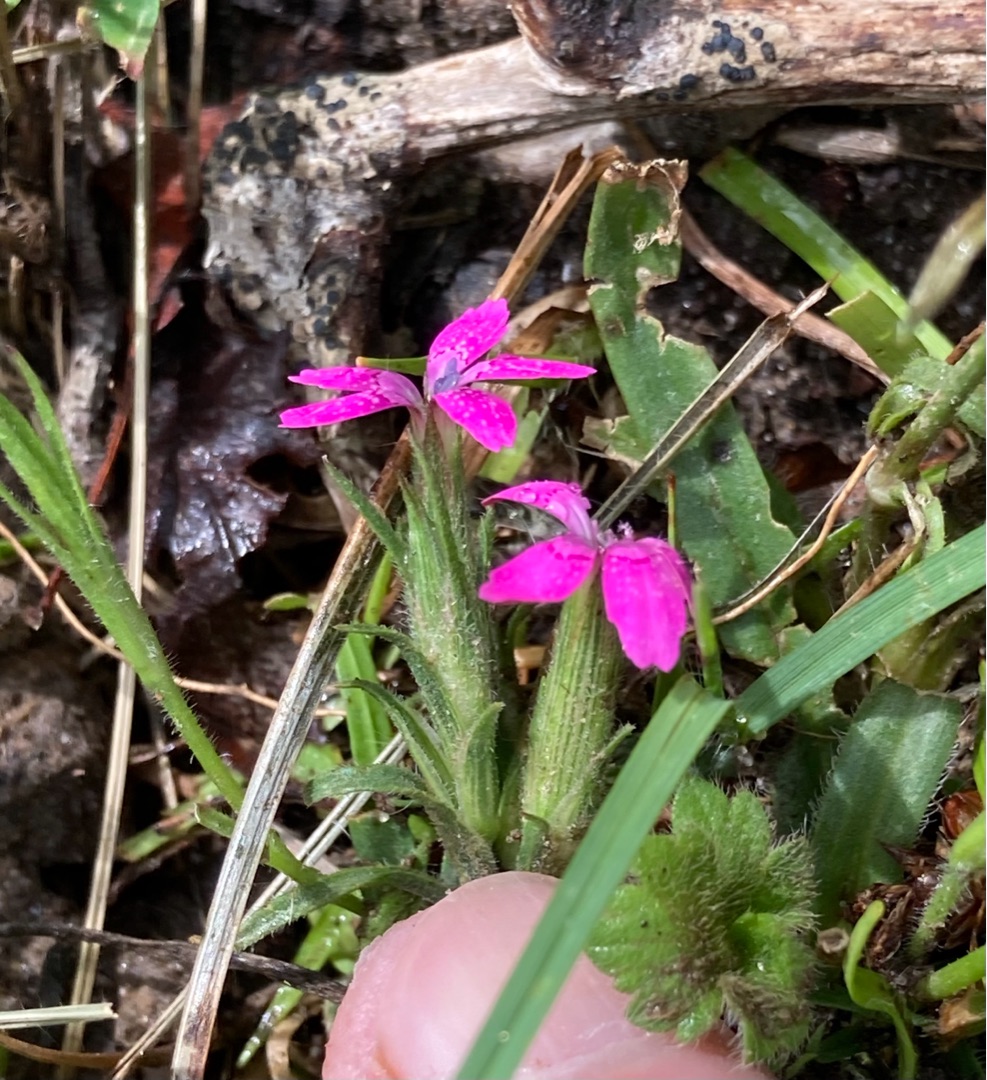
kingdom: Plantae
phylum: Tracheophyta
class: Magnoliopsida
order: Caryophyllales
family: Caryophyllaceae
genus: Dianthus
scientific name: Dianthus deltoides
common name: Bakke-nellike
